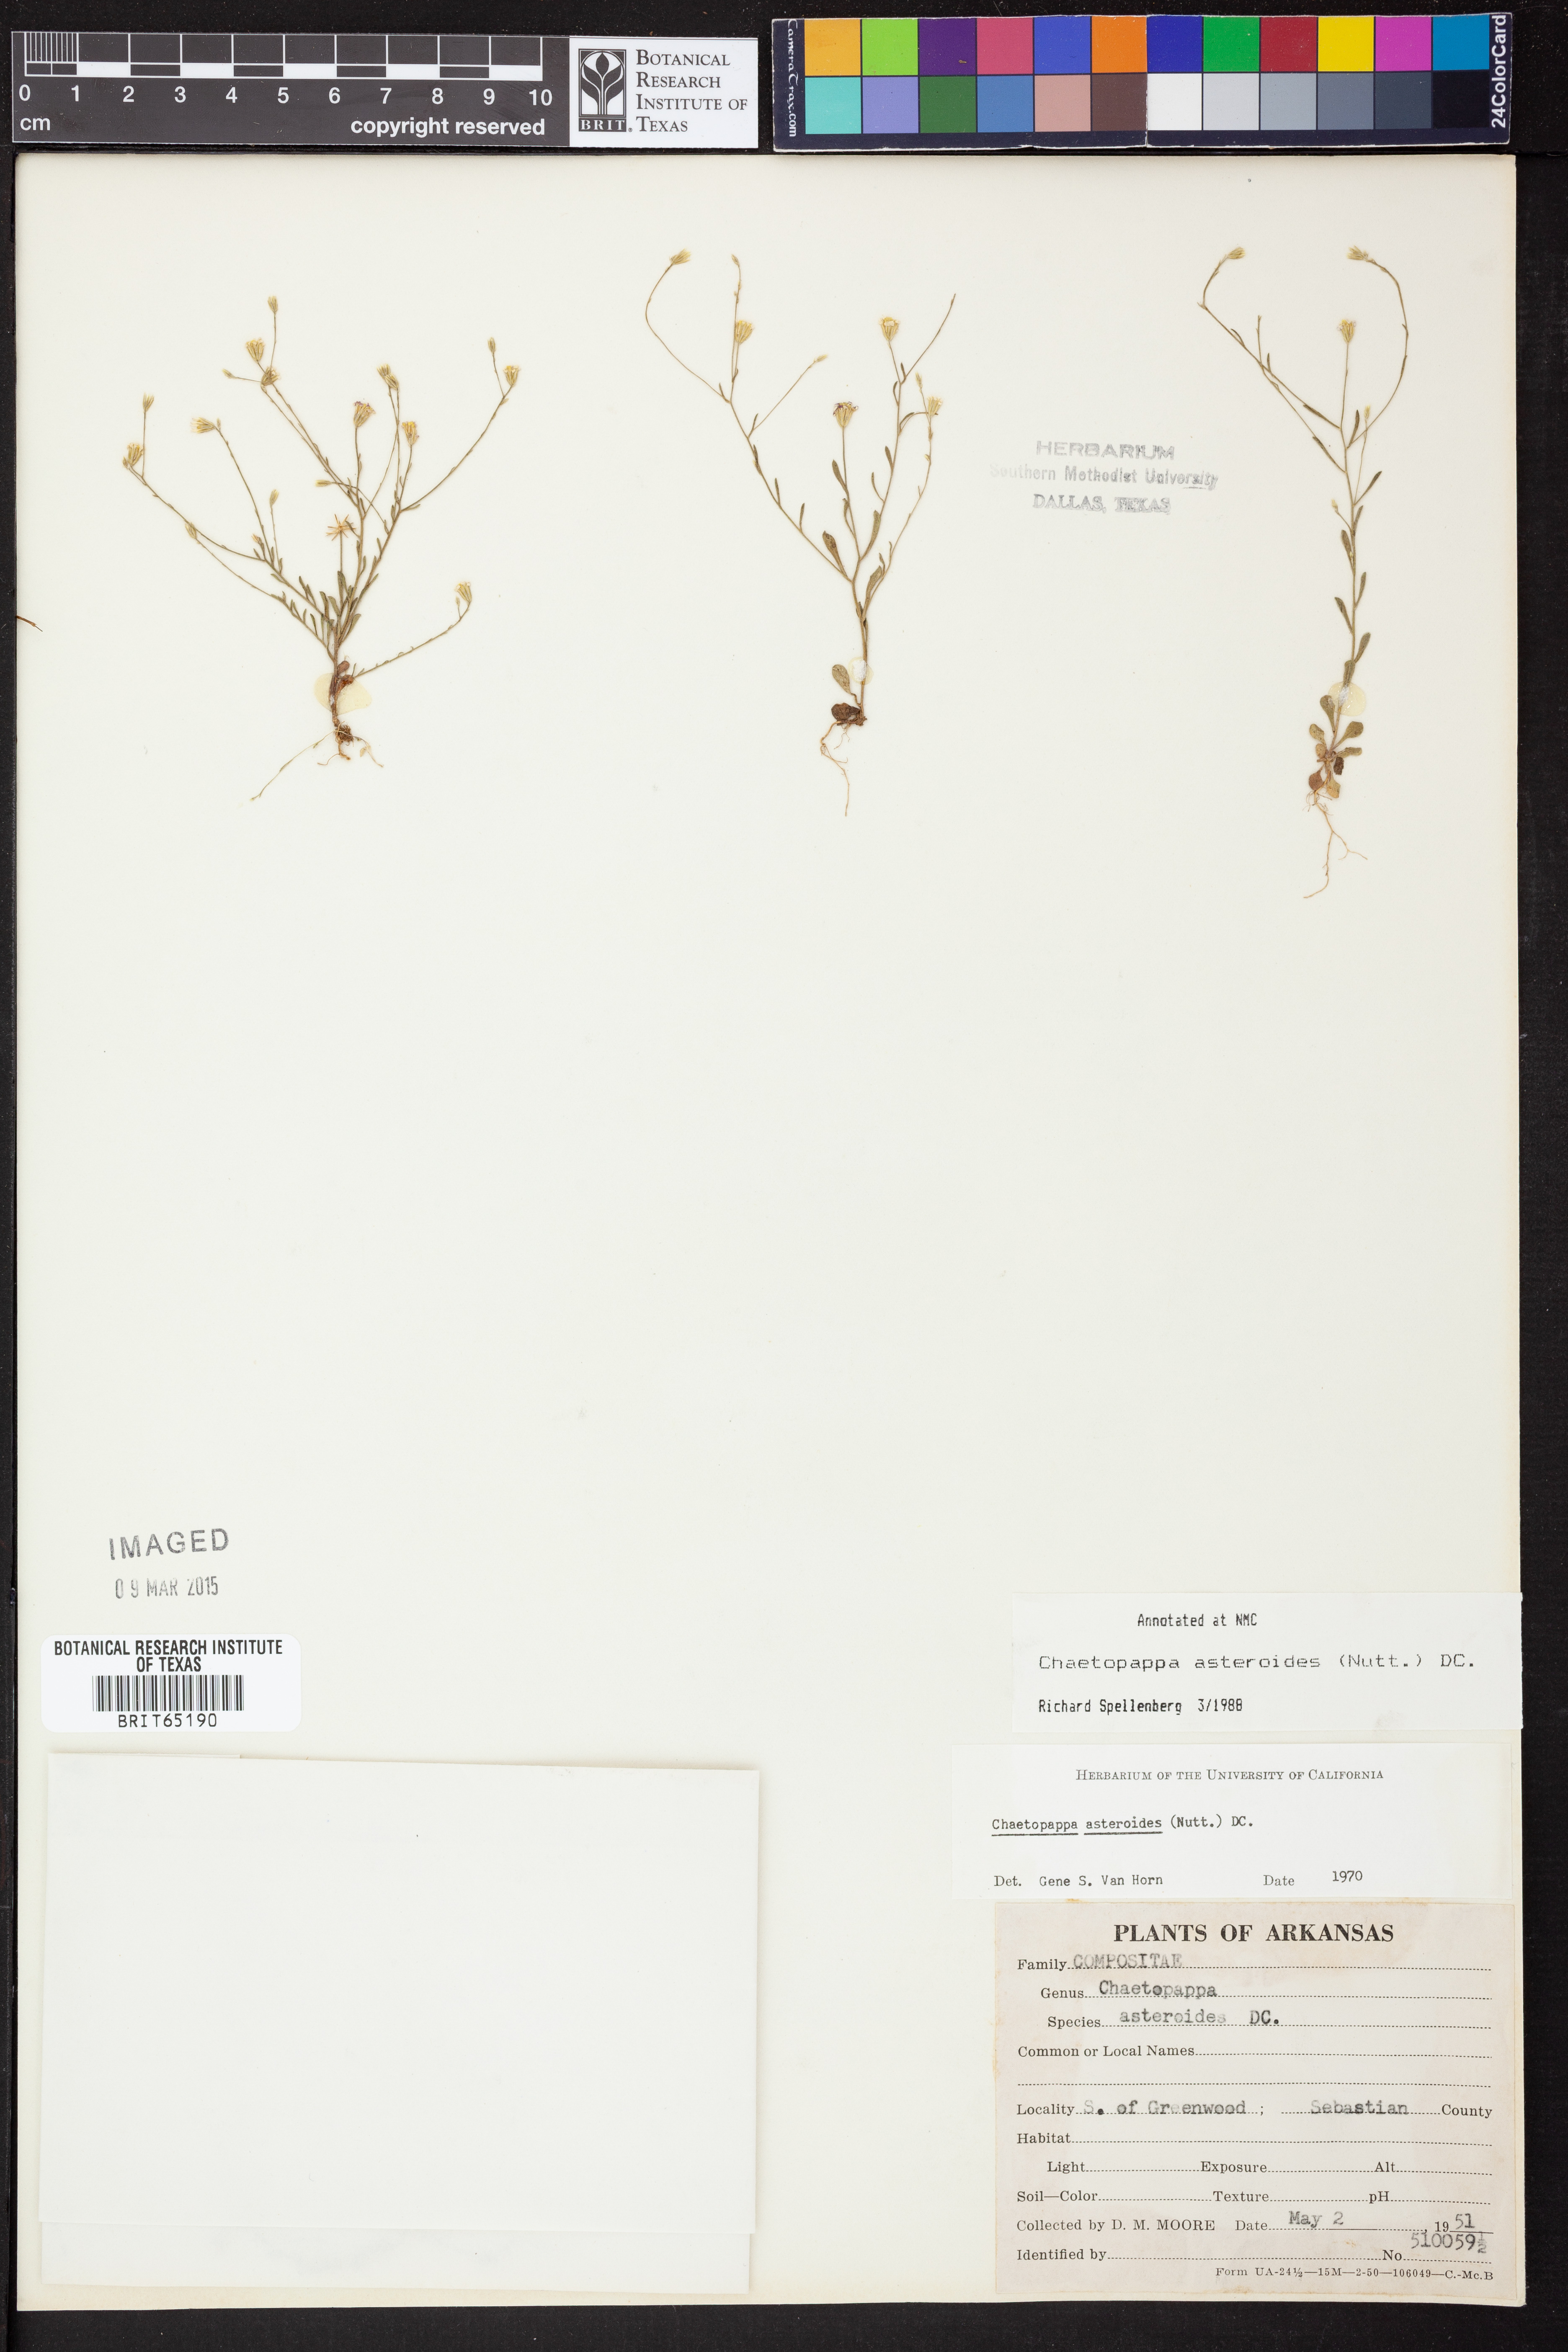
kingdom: Plantae
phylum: Tracheophyta
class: Magnoliopsida
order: Asterales
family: Asteraceae
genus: Chaetopappa
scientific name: Chaetopappa asteroides
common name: Tiny lazy daisy
